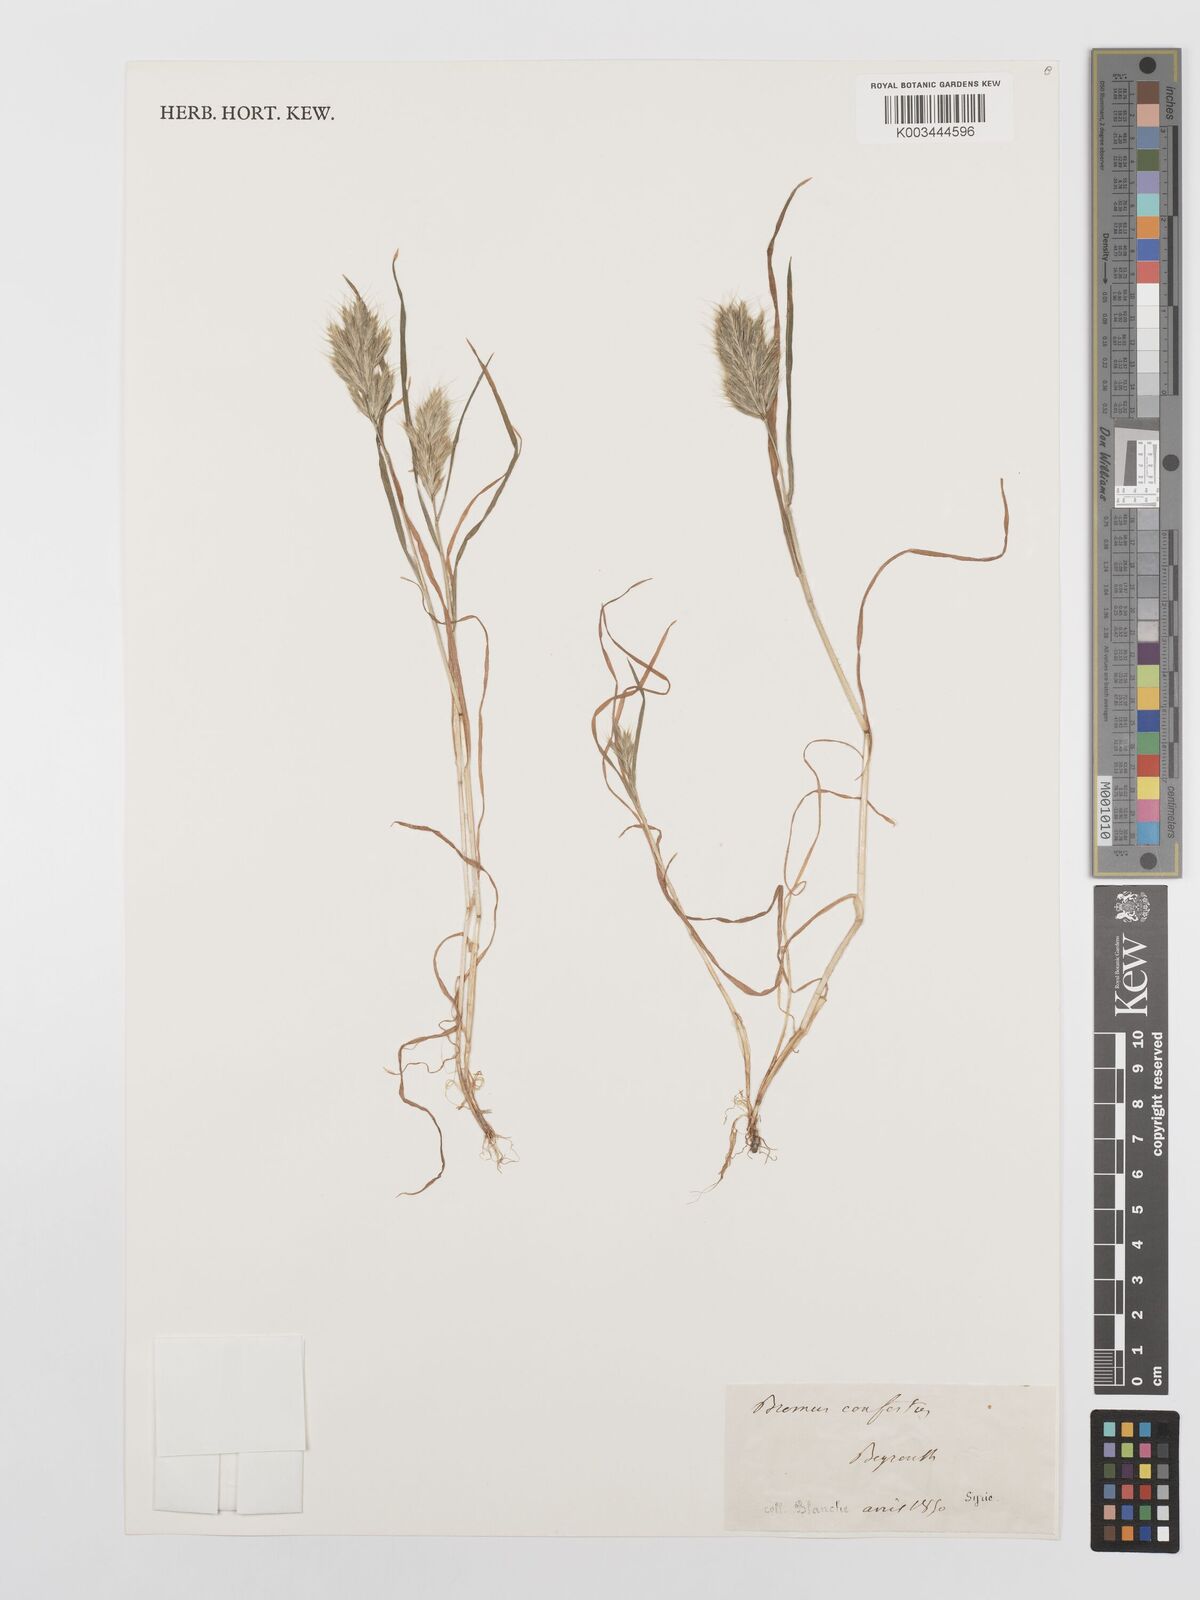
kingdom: Plantae
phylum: Tracheophyta
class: Liliopsida
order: Poales
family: Poaceae
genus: Bromus
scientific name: Bromus scoparius
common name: Broom brome
